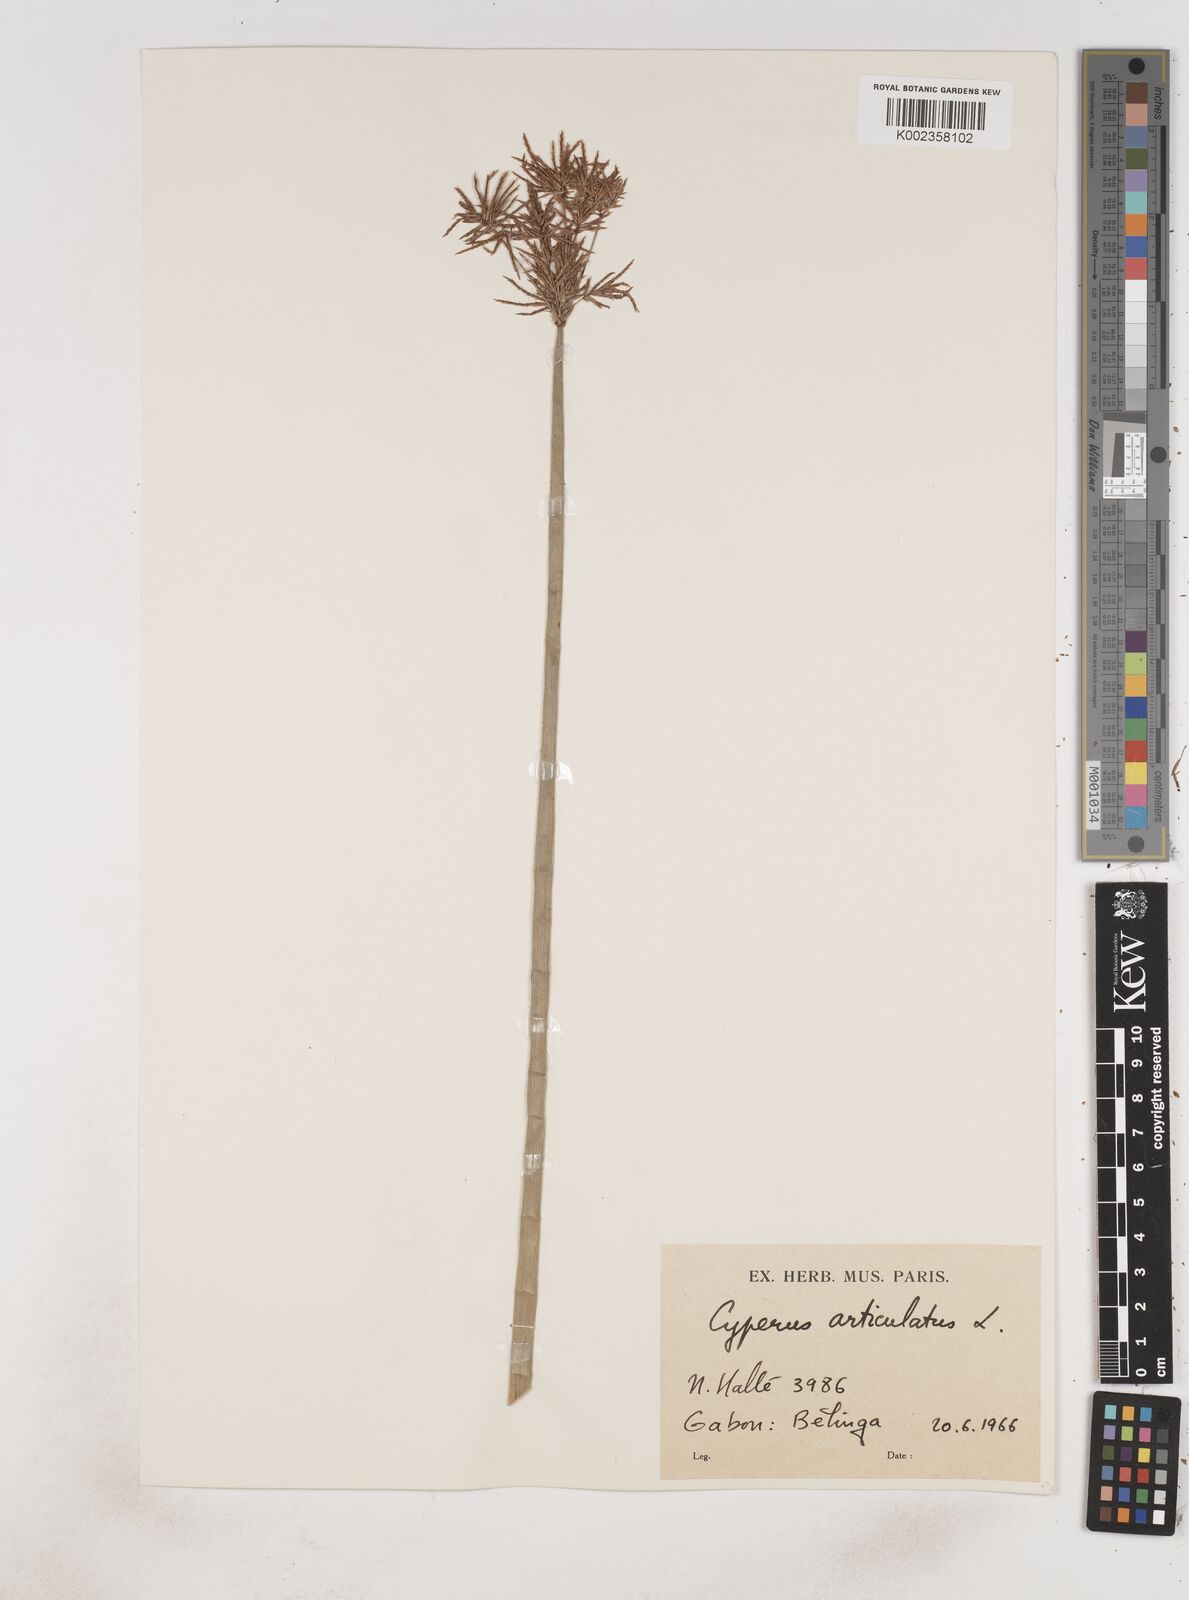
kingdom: Plantae
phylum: Tracheophyta
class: Liliopsida
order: Poales
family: Cyperaceae
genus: Cyperus
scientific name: Cyperus articulatus
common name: Jointed flatsedge
